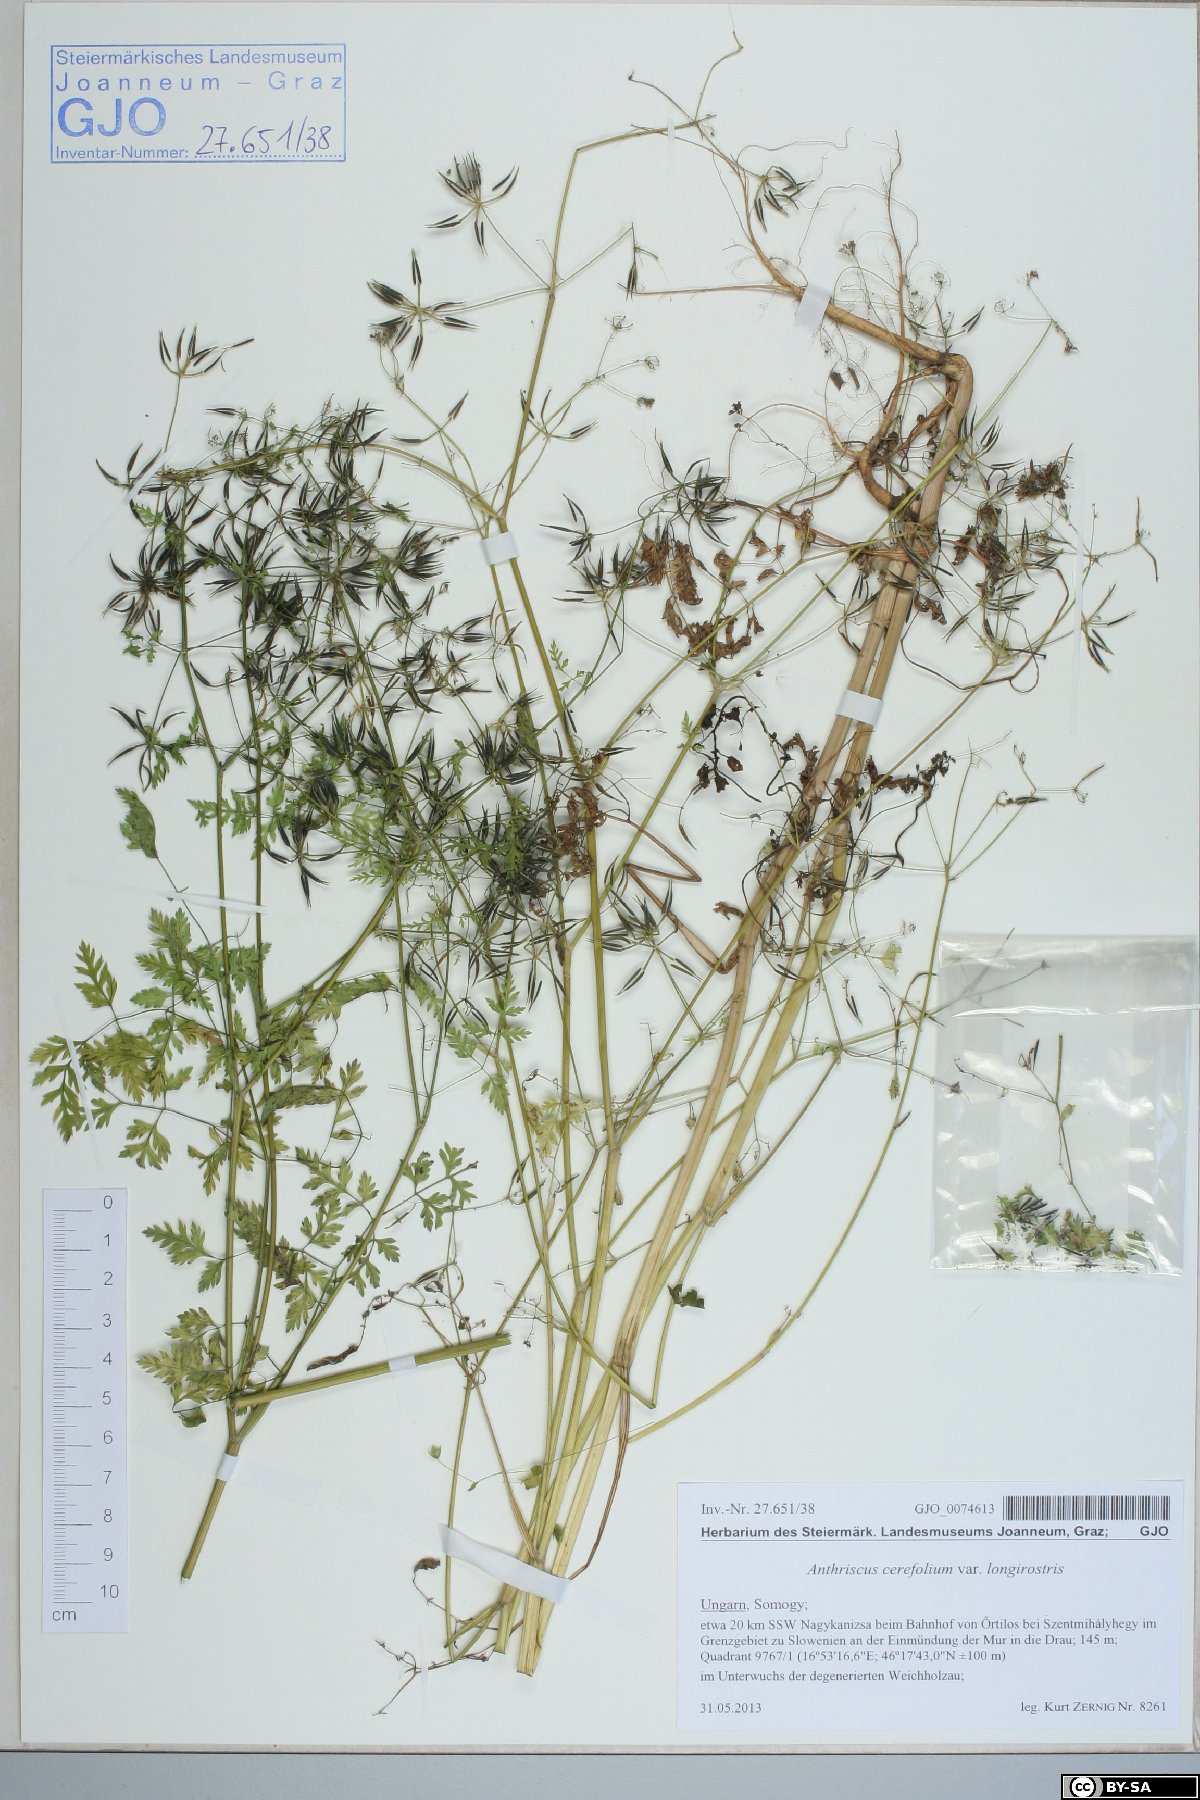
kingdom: Plantae
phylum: Tracheophyta
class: Magnoliopsida
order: Apiales
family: Apiaceae
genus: Anthriscus
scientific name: Anthriscus cerefolium
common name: Garden chervil
